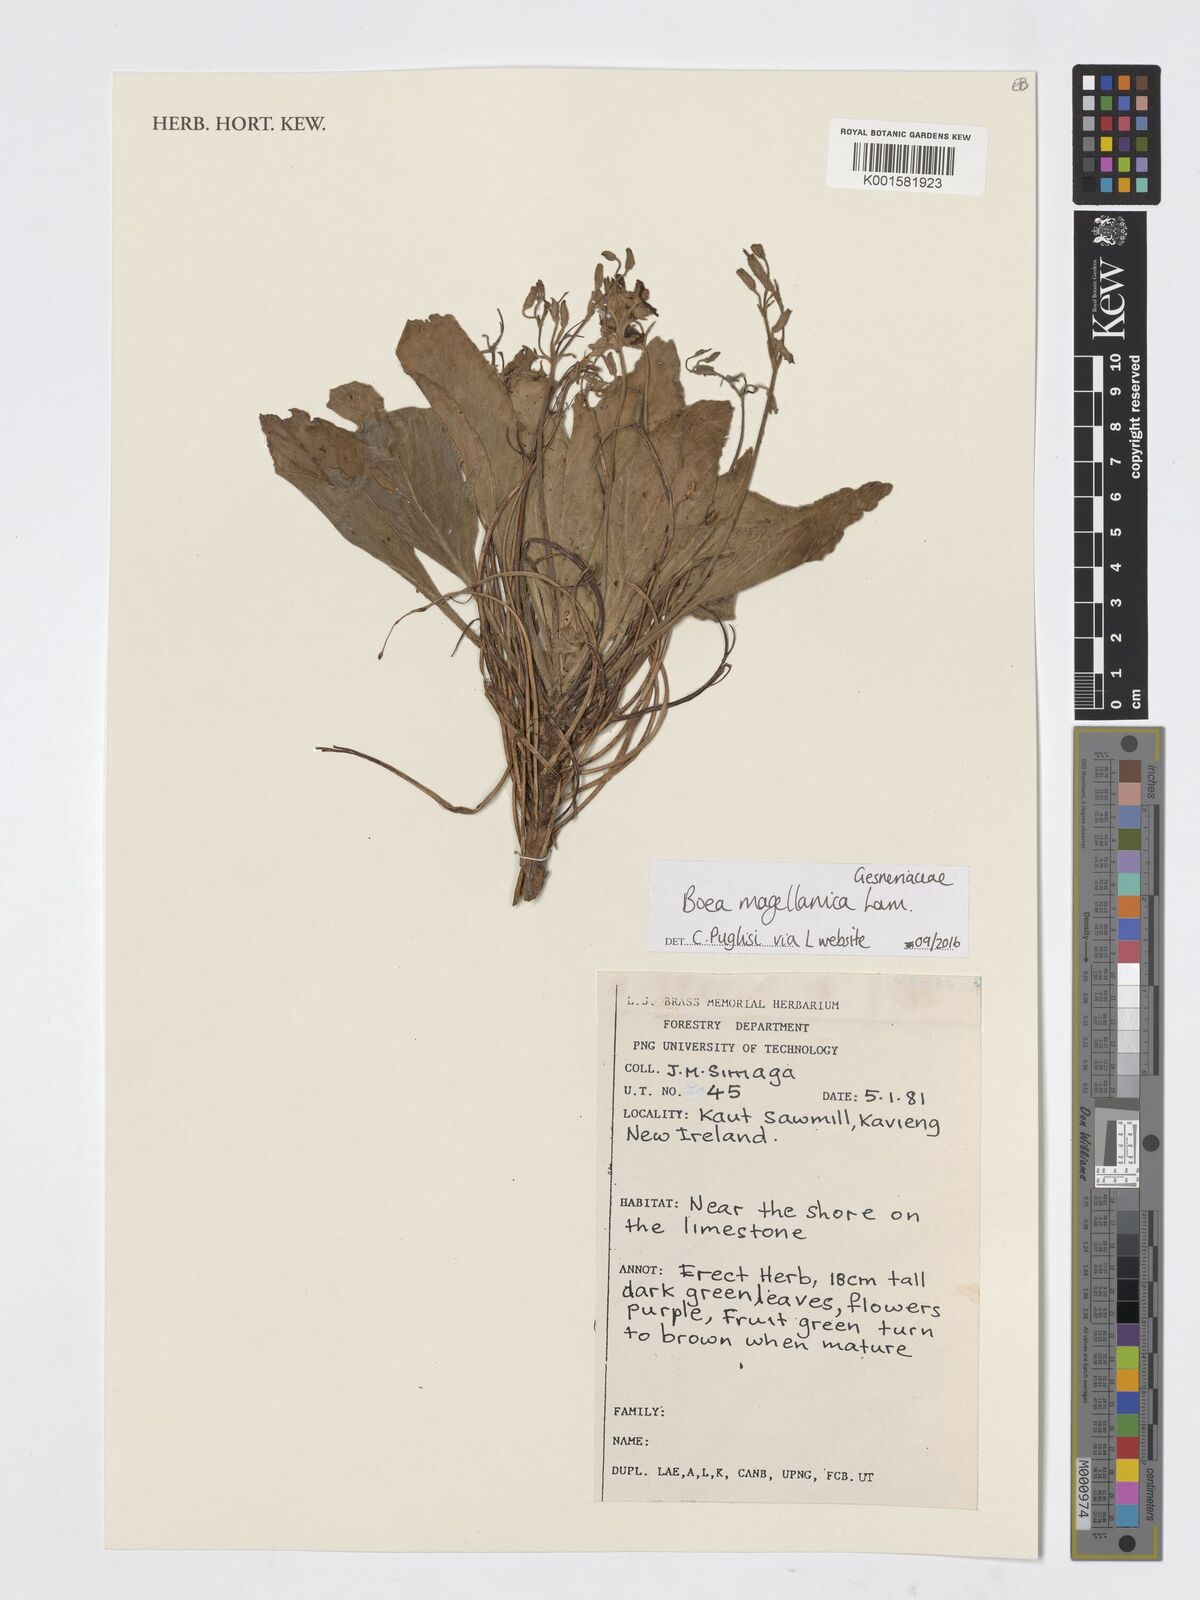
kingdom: Plantae
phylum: Tracheophyta
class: Magnoliopsida
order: Lamiales
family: Gesneriaceae
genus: Boea
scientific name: Boea magellanica
